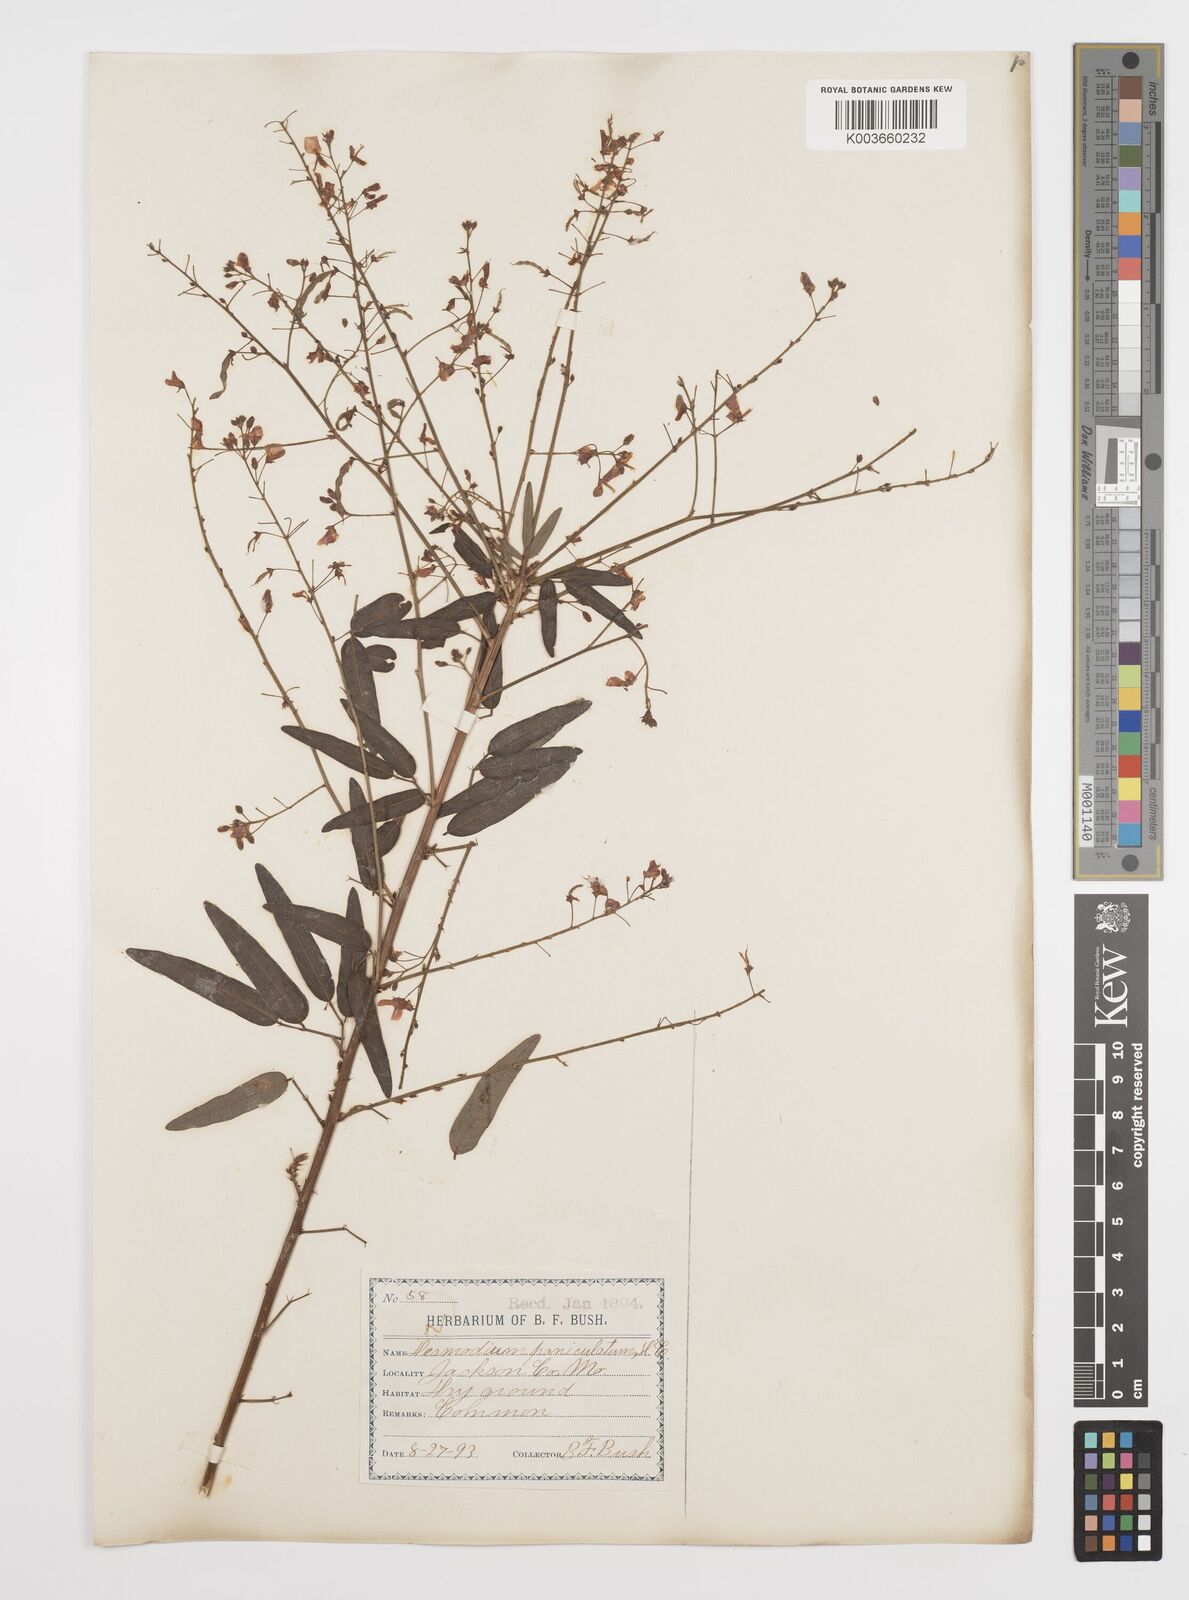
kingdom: Plantae
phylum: Tracheophyta
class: Magnoliopsida
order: Fabales
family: Fabaceae
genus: Desmodium
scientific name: Desmodium paniculatum
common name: Panicled tick-clover
